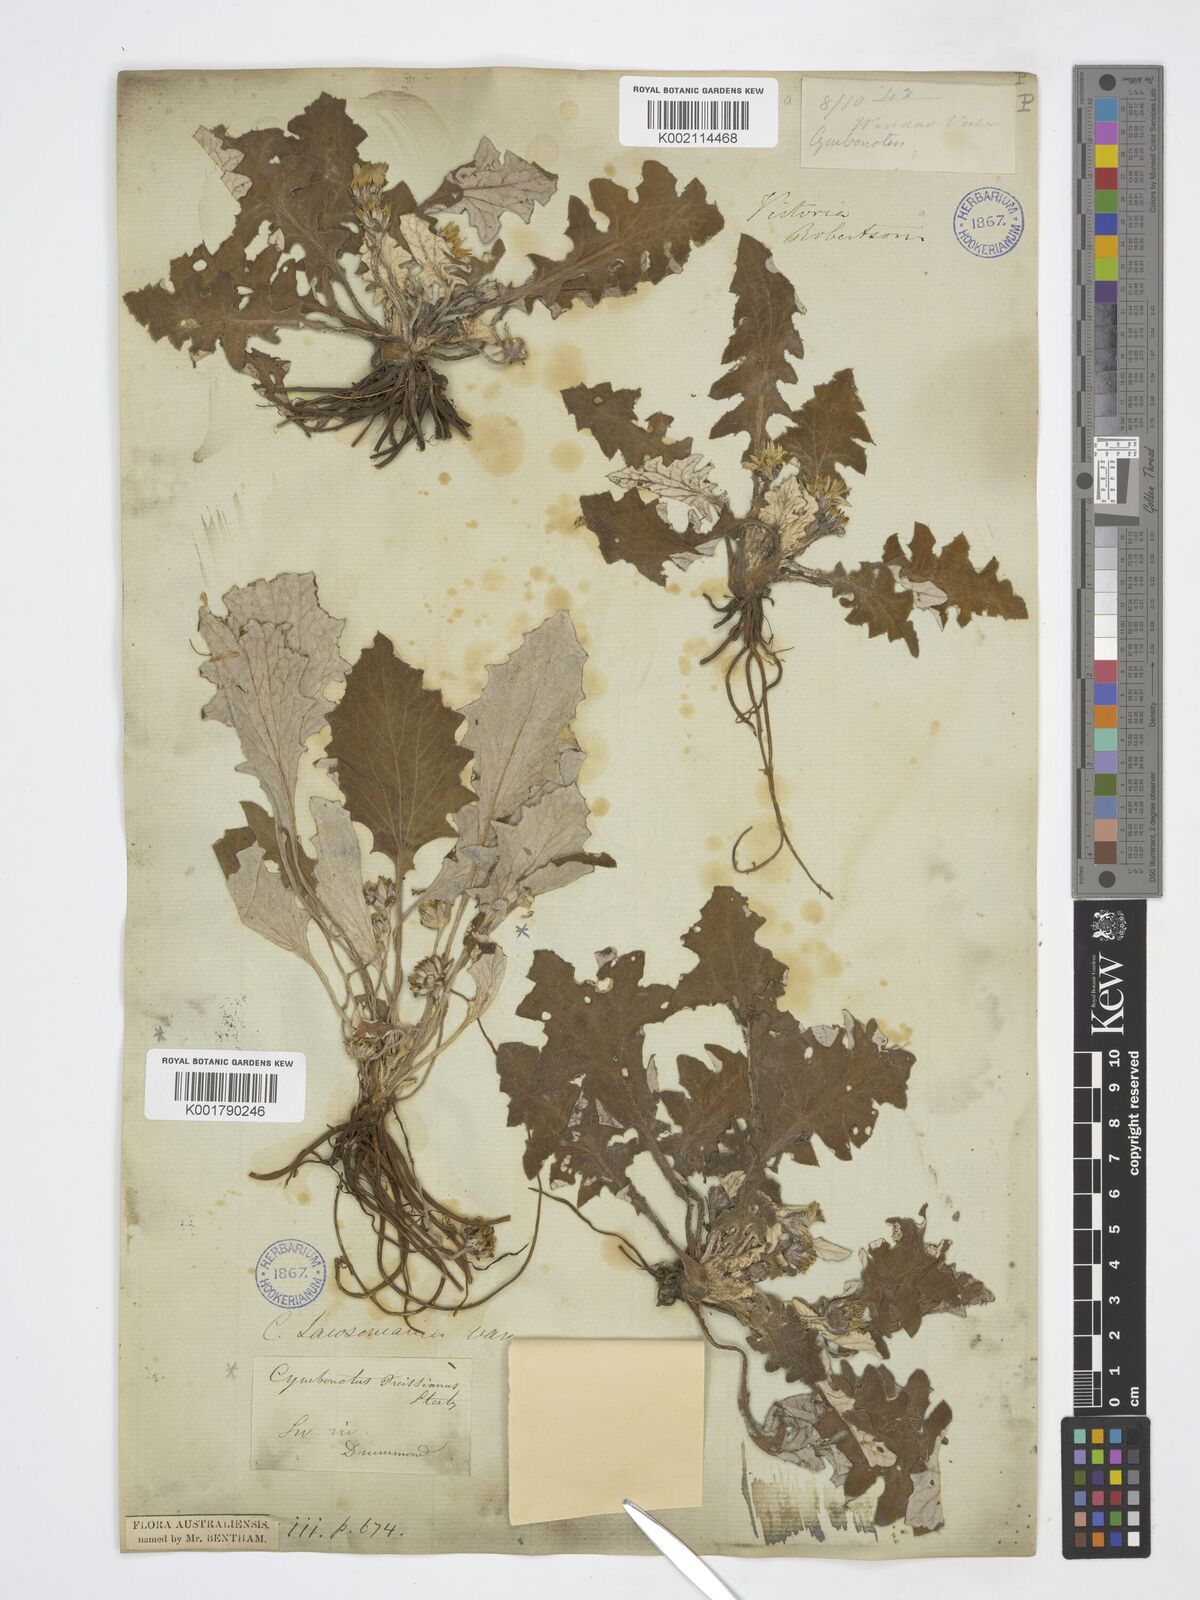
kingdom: Plantae
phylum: Tracheophyta
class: Magnoliopsida
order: Asterales
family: Asteraceae
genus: Cymbonotus
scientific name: Cymbonotus lawsonianus
